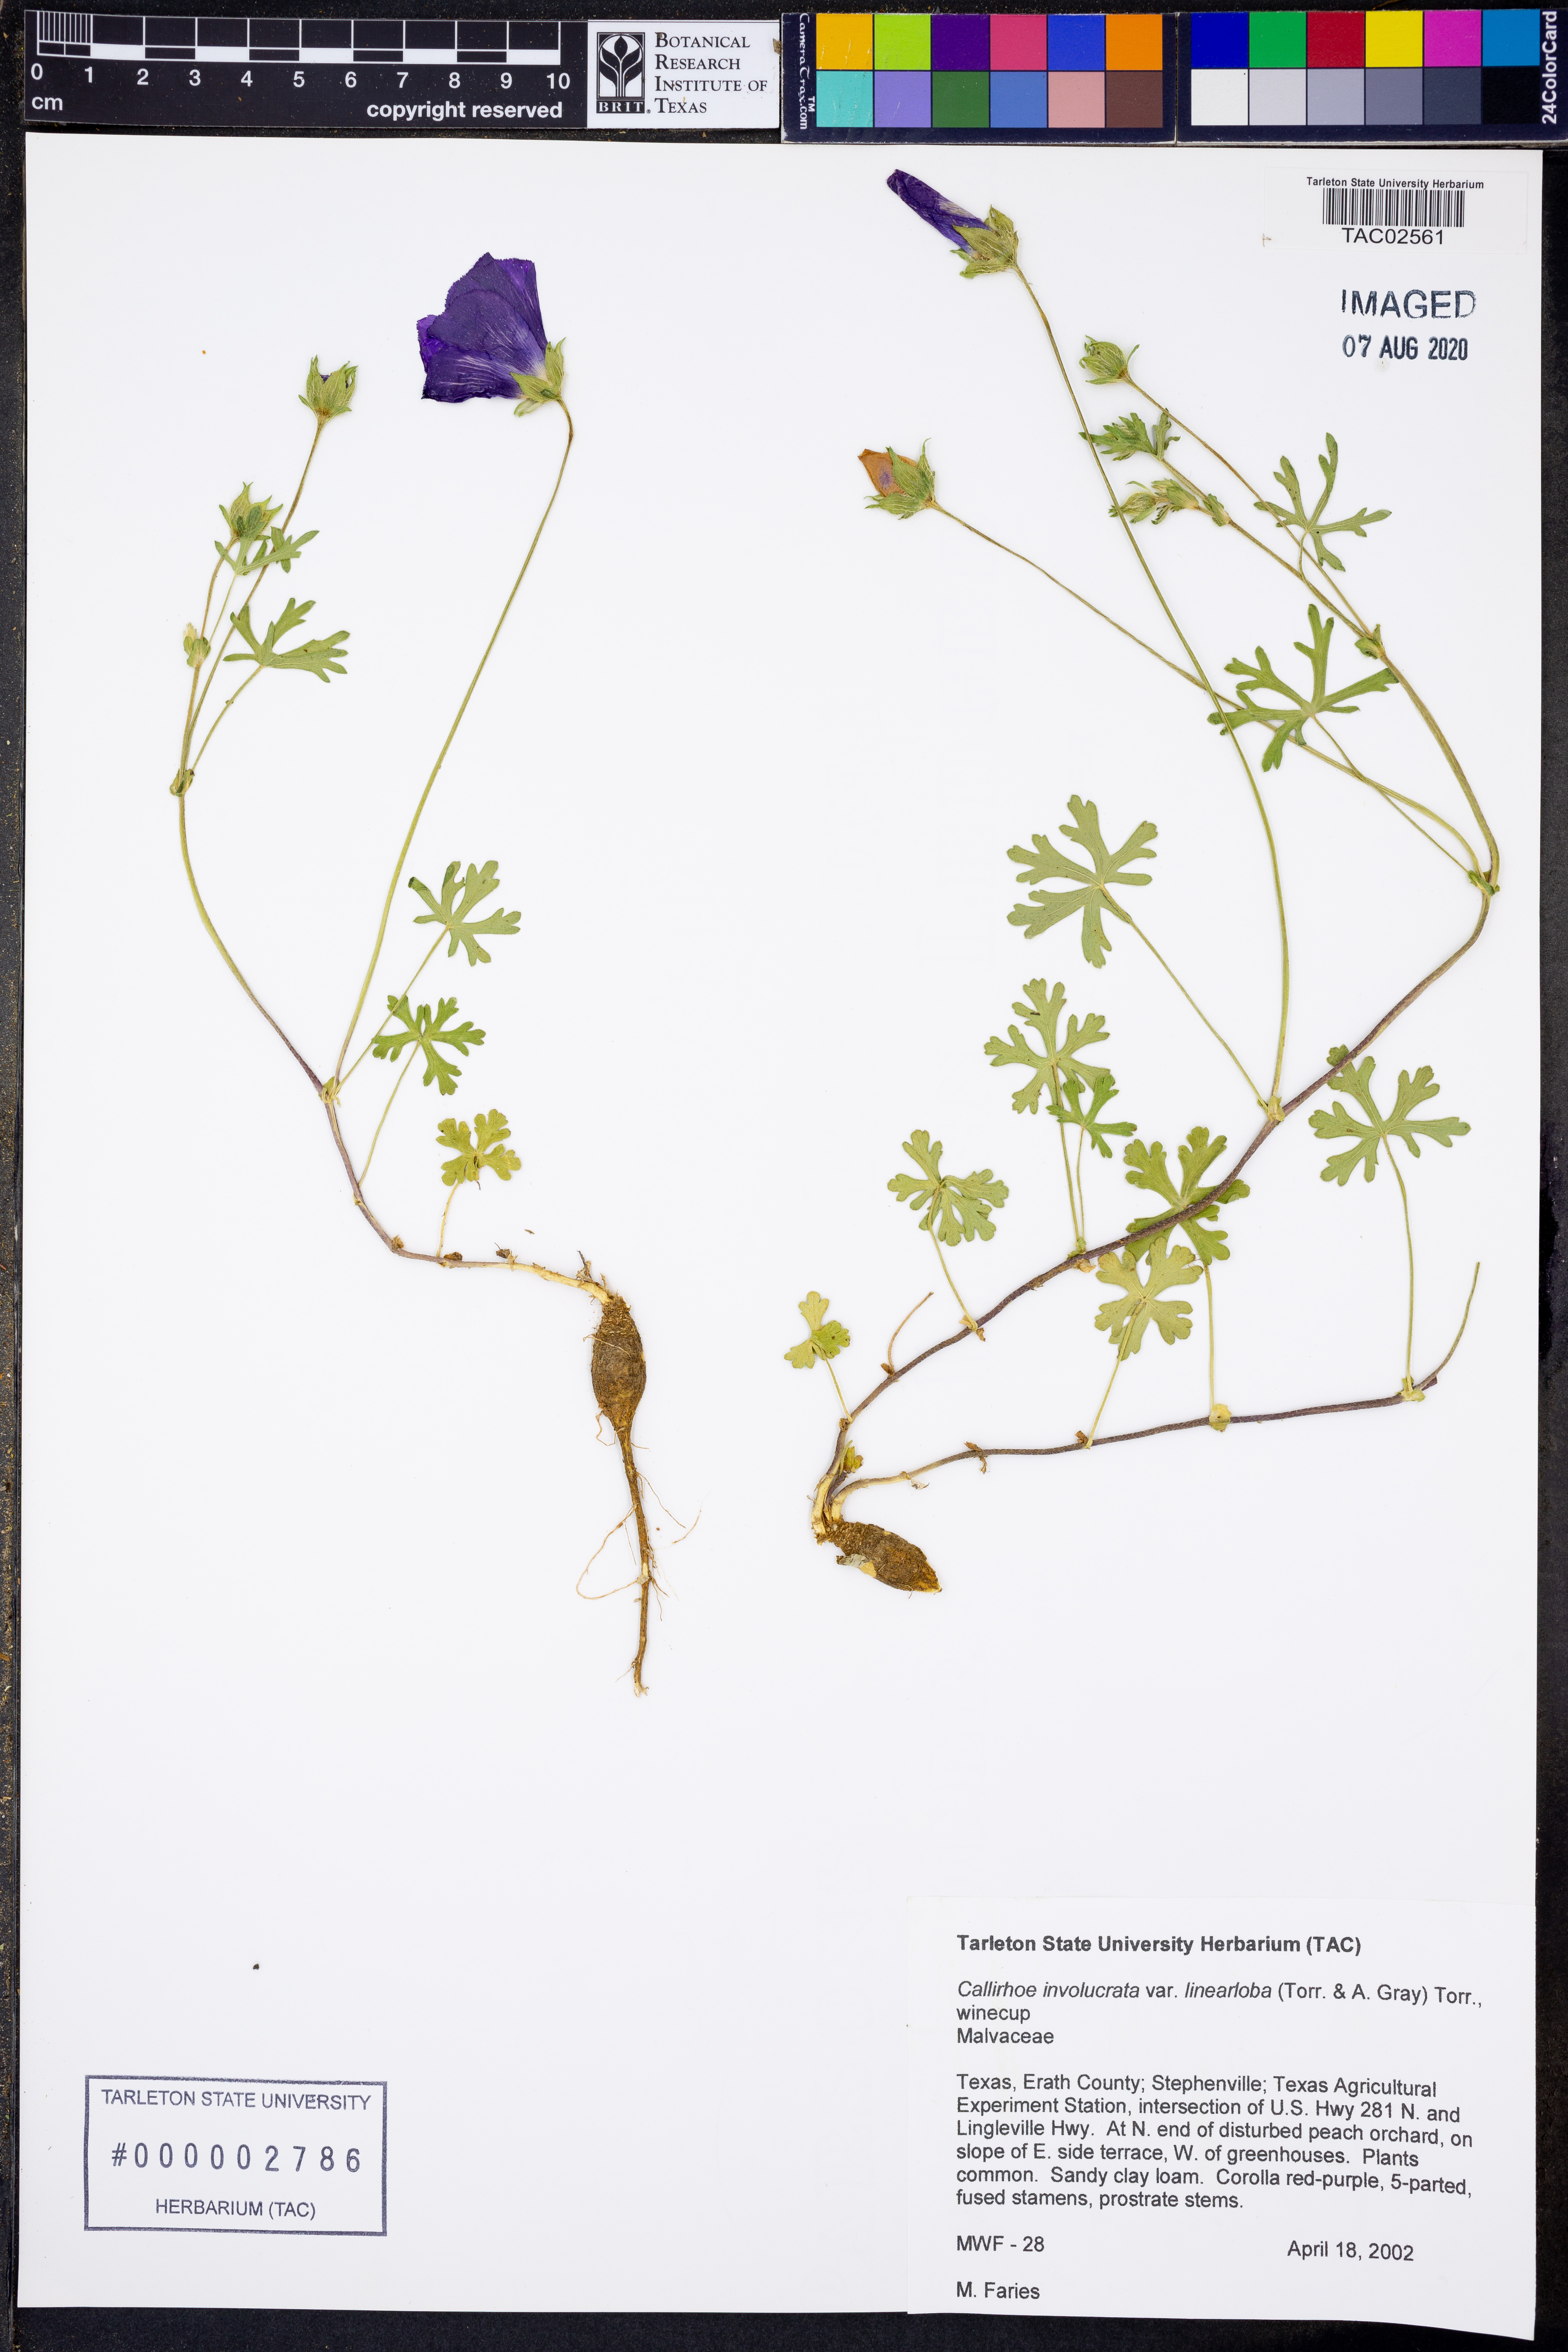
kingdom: Plantae
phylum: Tracheophyta
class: Magnoliopsida
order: Malvales
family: Malvaceae
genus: Callirhoe
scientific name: Callirhoe involucrata
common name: Purple poppy-mallow
